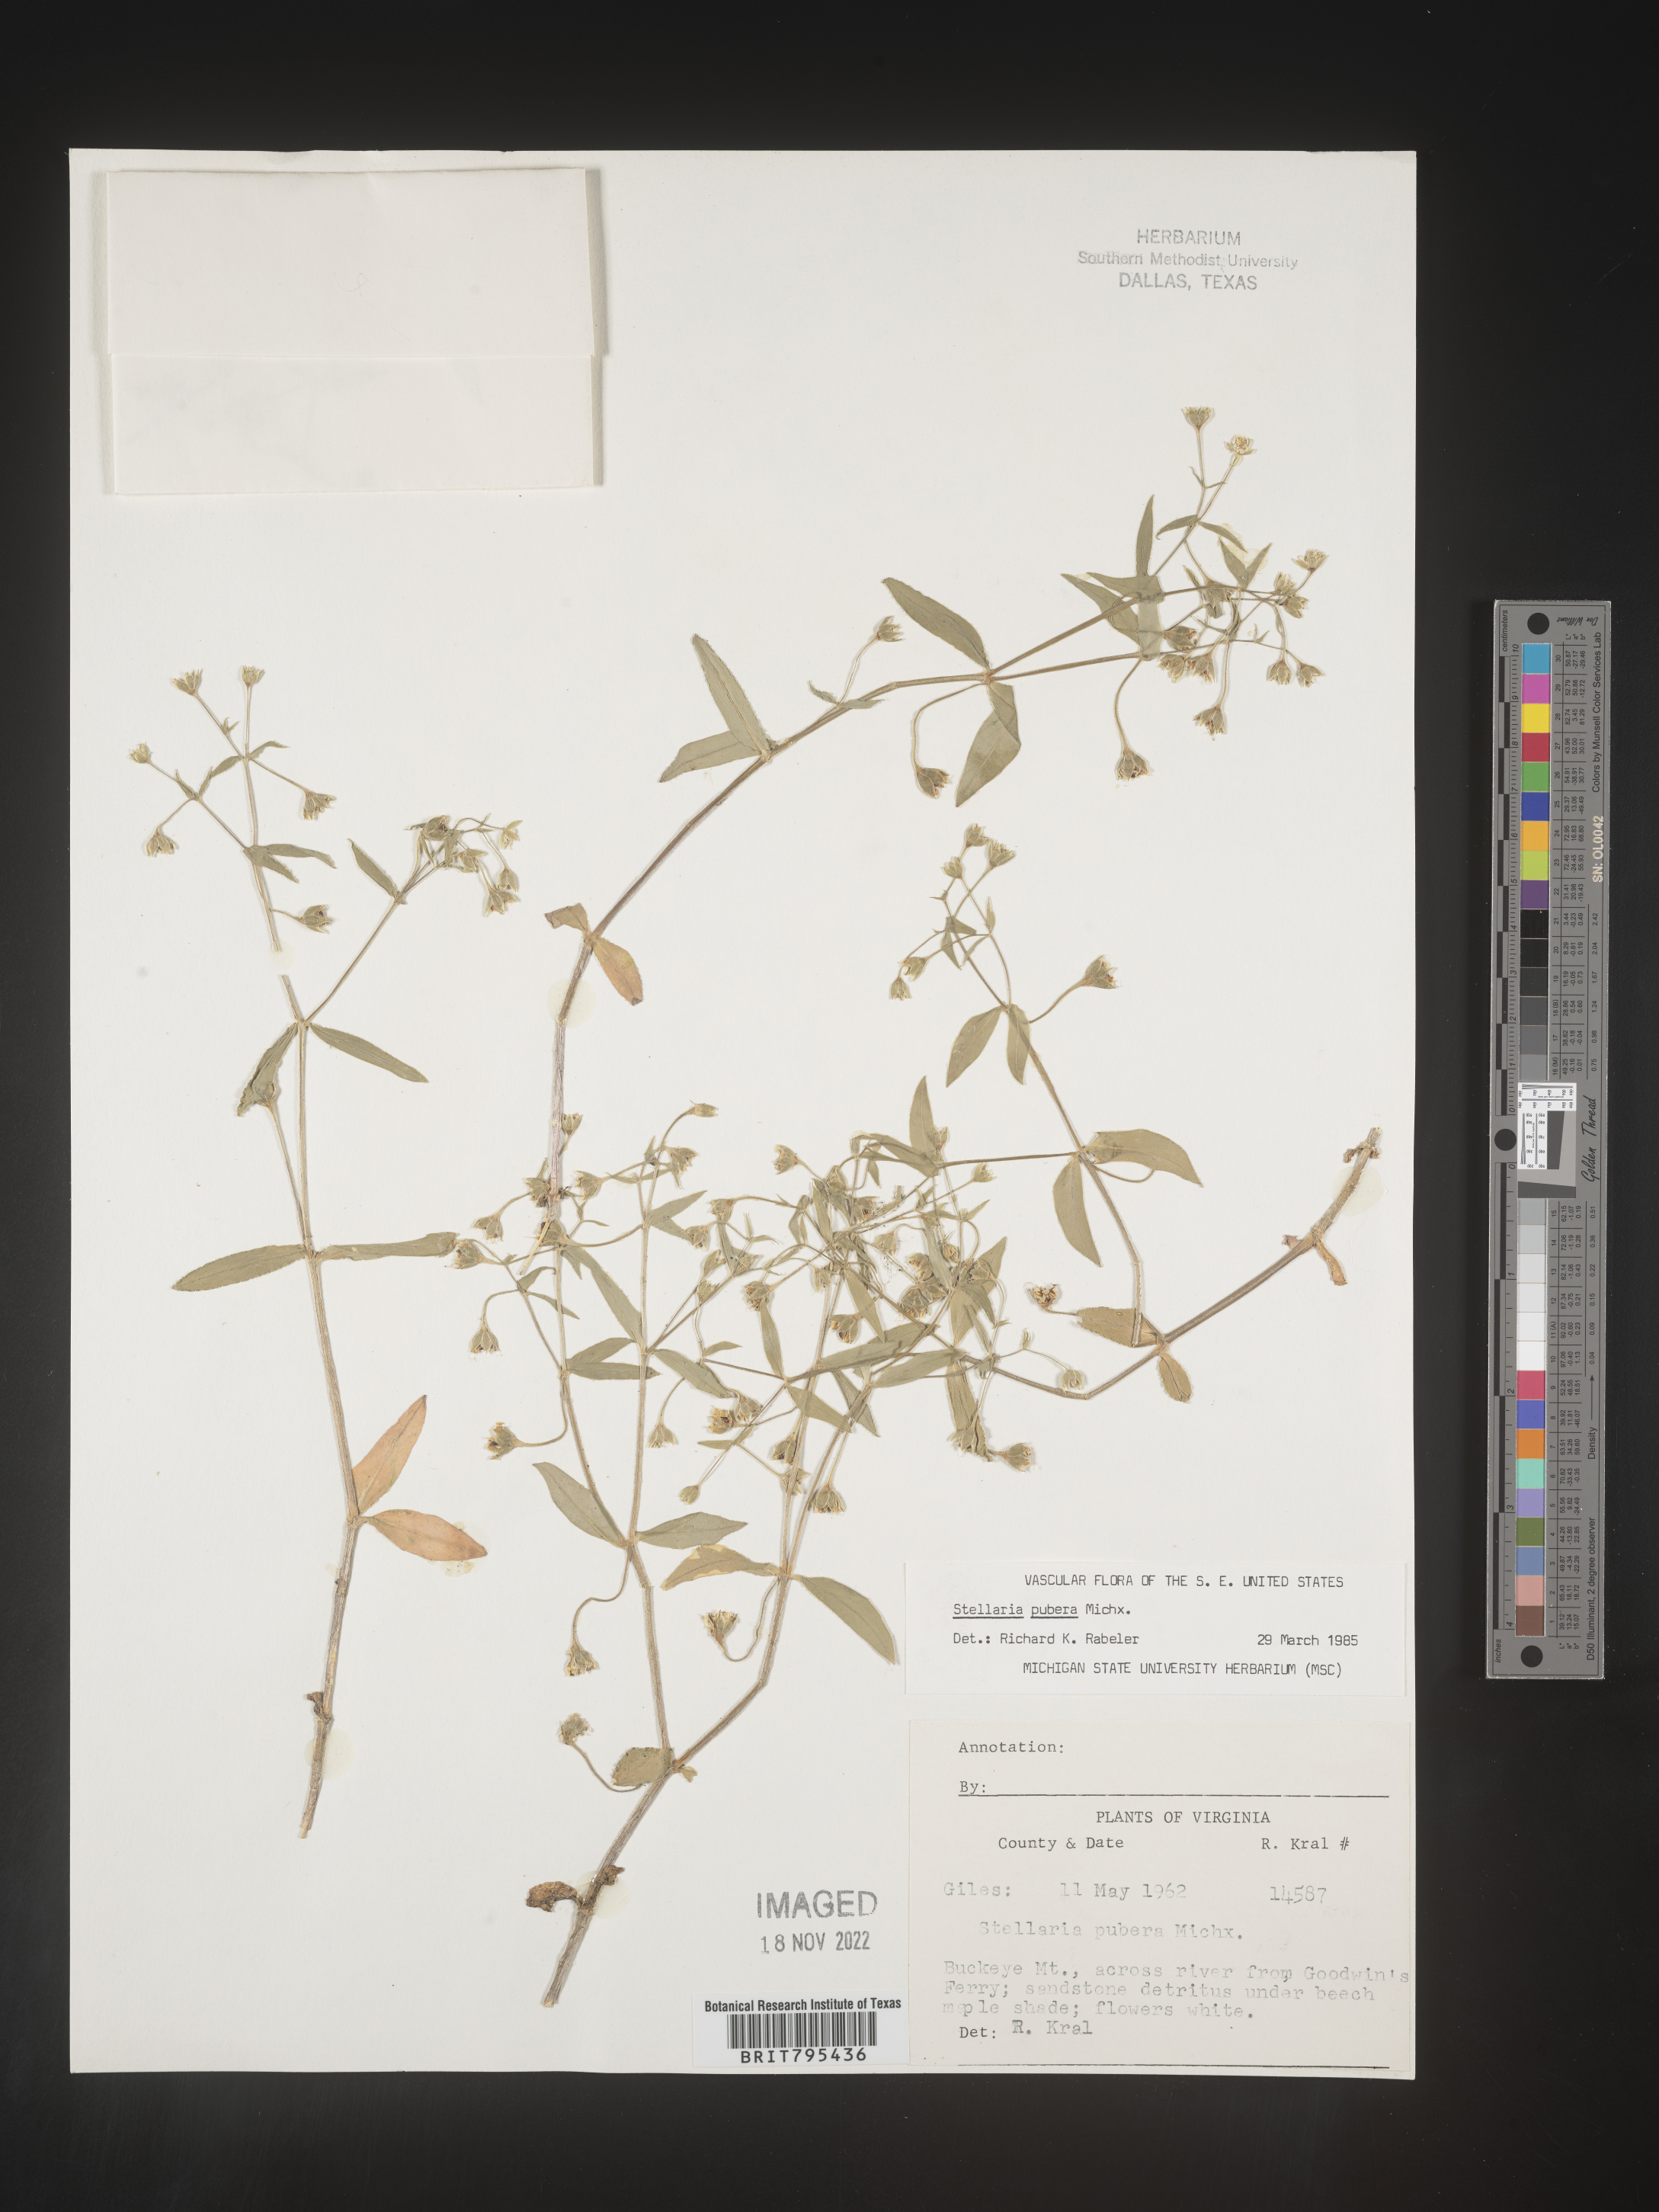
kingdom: Plantae
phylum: Tracheophyta
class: Magnoliopsida
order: Caryophyllales
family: Caryophyllaceae
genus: Stellaria
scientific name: Stellaria pubera
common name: Star chickweed
